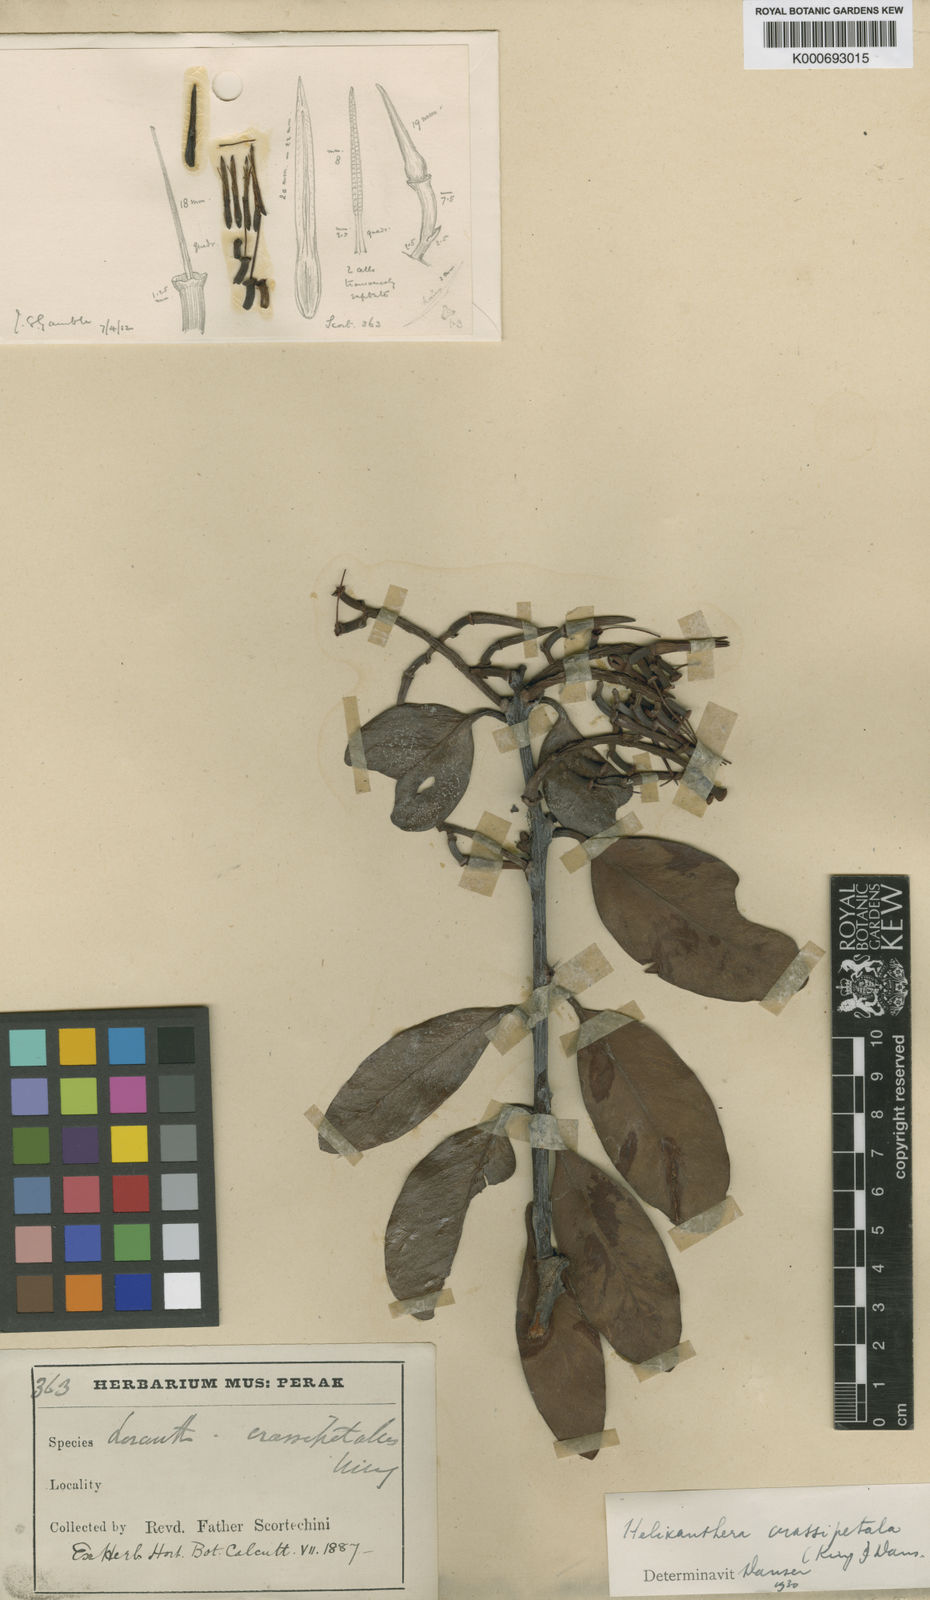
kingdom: Plantae
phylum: Tracheophyta
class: Magnoliopsida
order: Santalales
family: Loranthaceae
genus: Helixanthera
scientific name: Helixanthera crassipetala
